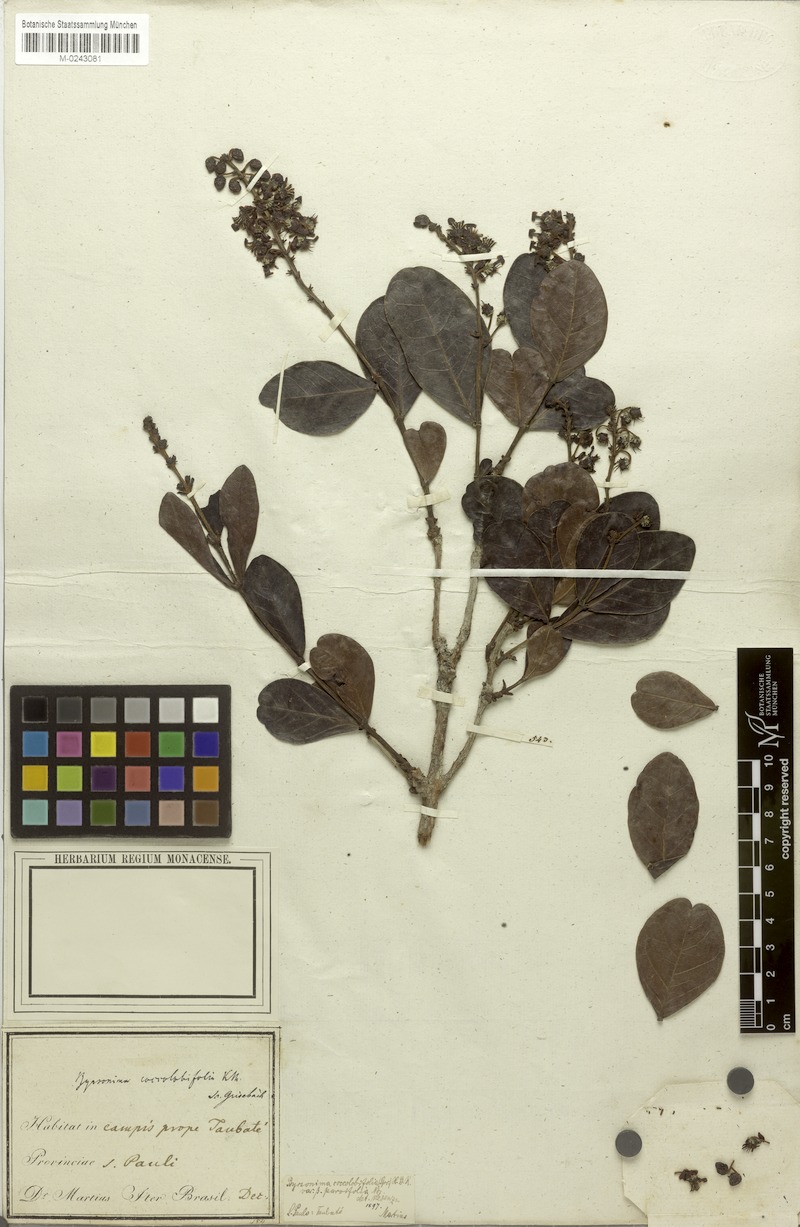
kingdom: Plantae
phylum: Tracheophyta
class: Magnoliopsida
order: Malpighiales
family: Malpighiaceae
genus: Byrsonima
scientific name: Byrsonima coccolobifolia
